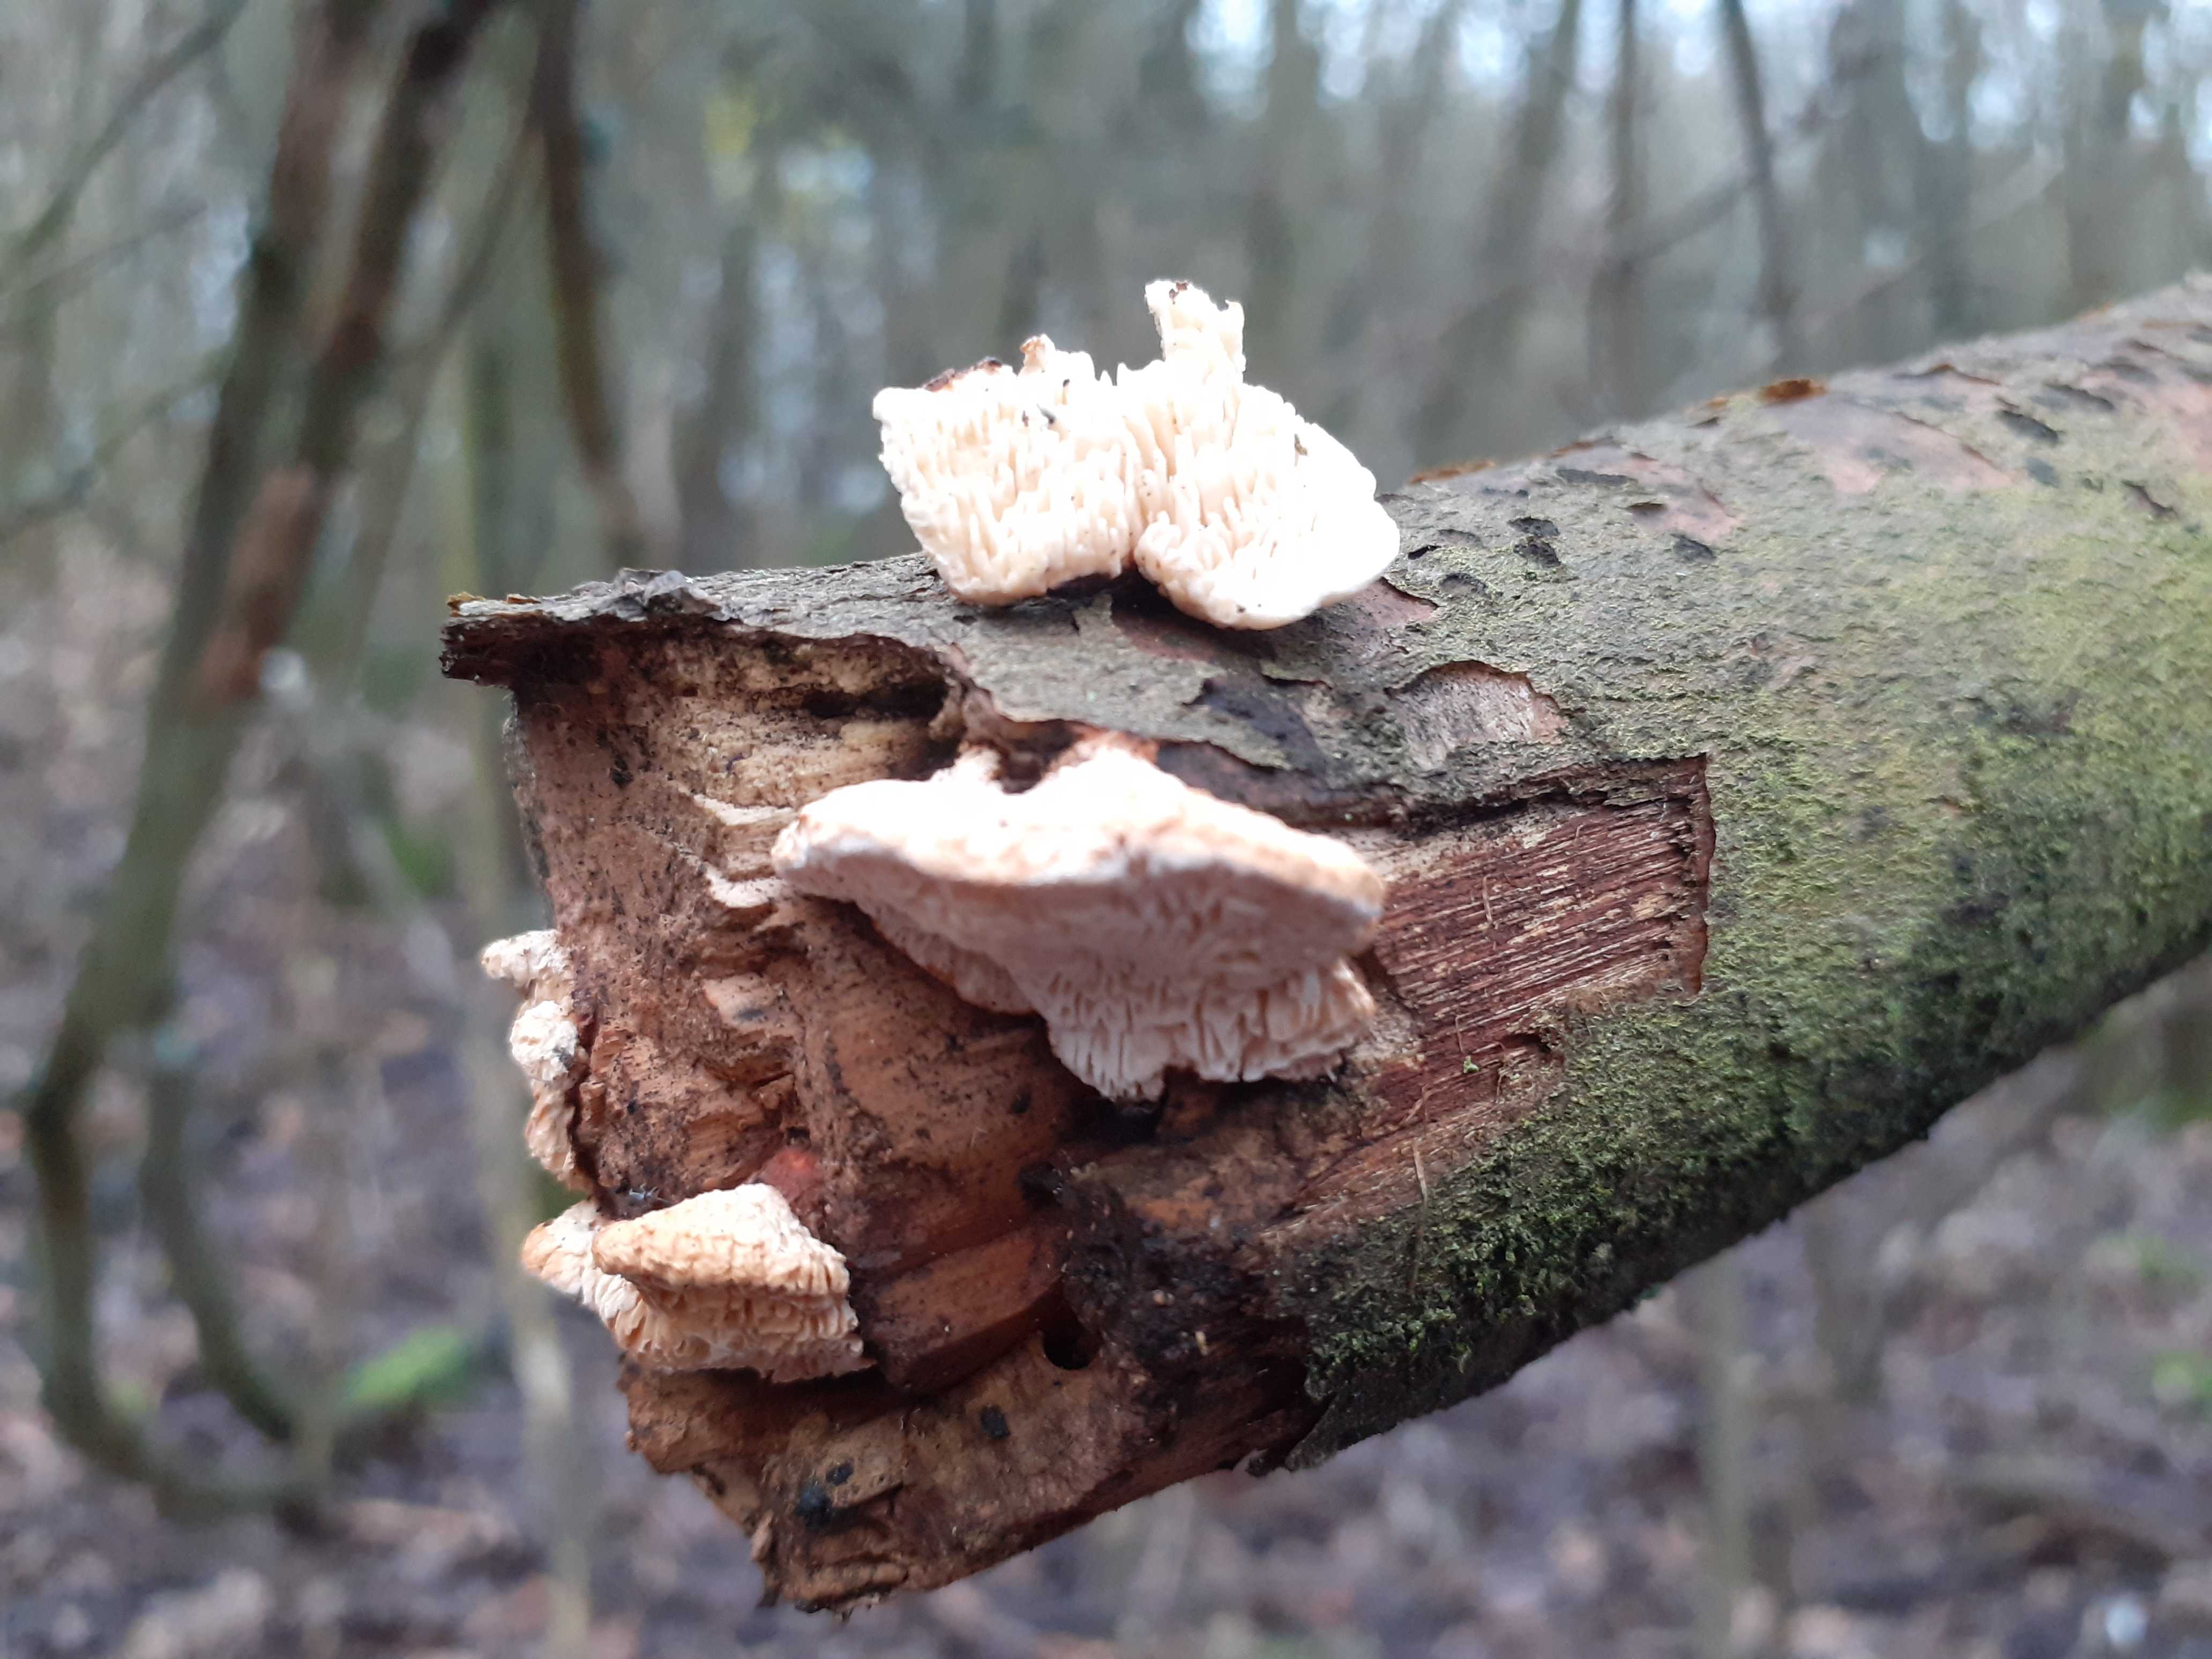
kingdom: Fungi
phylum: Basidiomycota
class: Agaricomycetes
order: Polyporales
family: Fomitopsidaceae
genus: Fomitopsis
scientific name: Fomitopsis
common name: pile-skiveporesvamp
